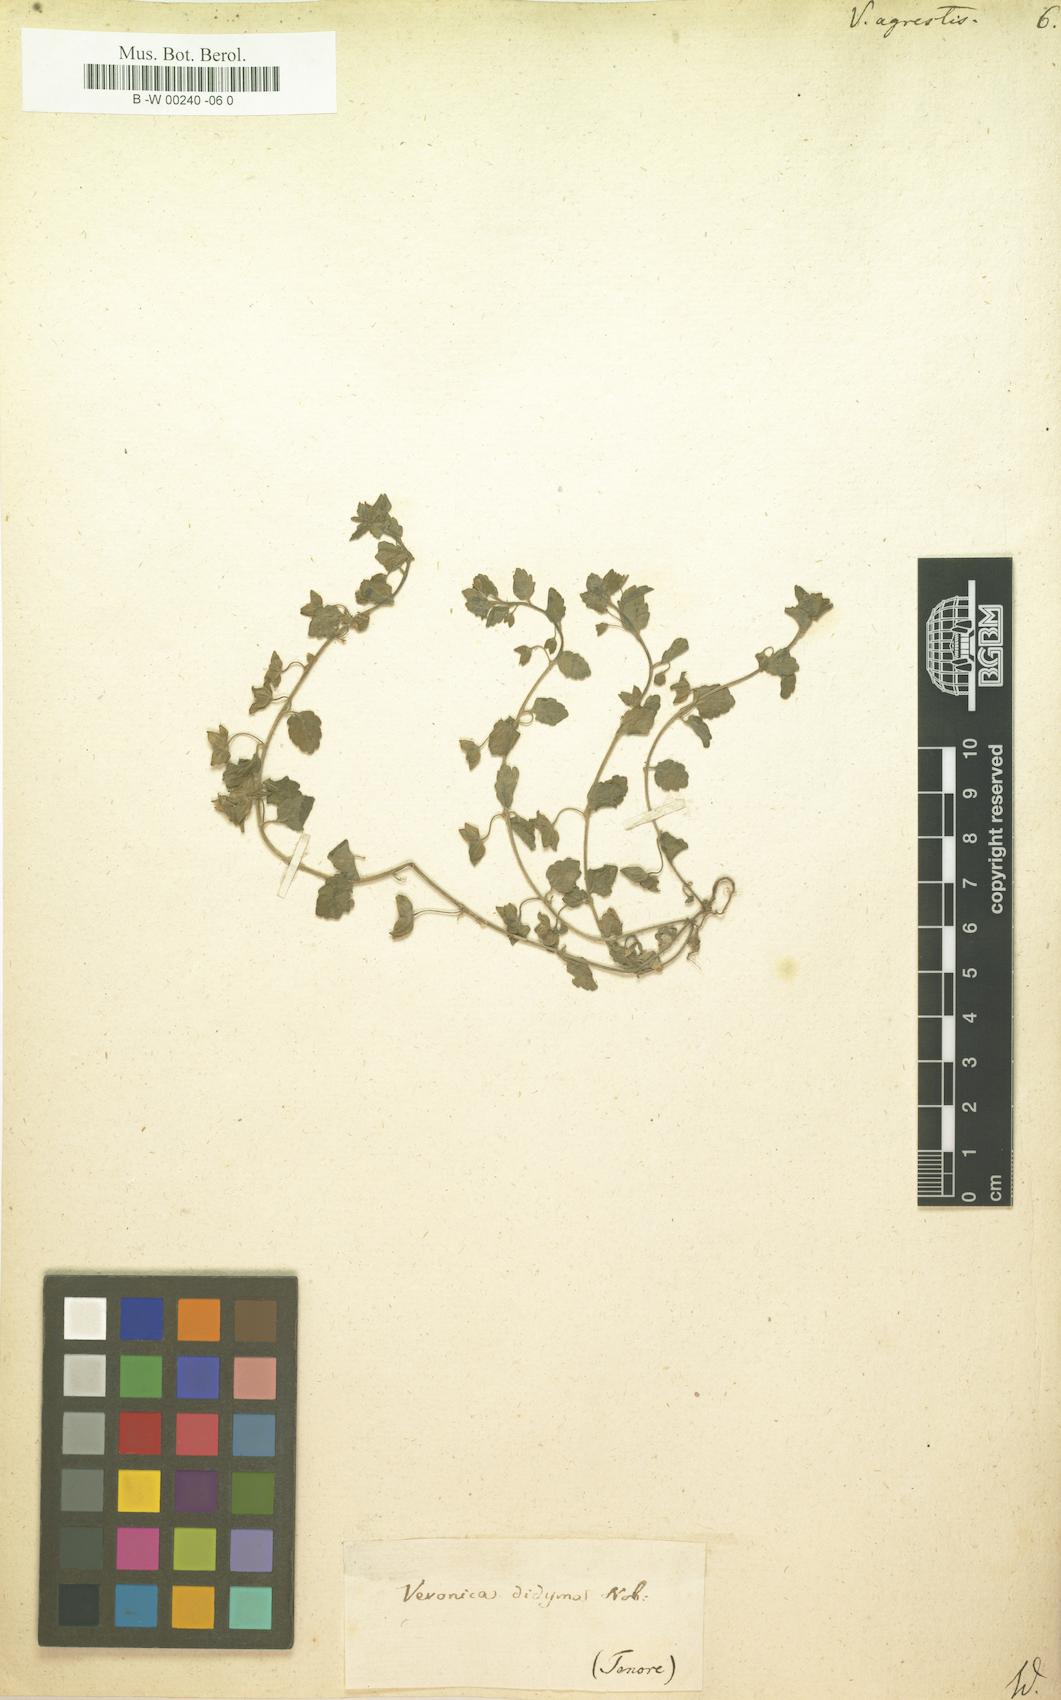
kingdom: Plantae
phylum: Tracheophyta
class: Magnoliopsida
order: Lamiales
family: Plantaginaceae
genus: Veronica
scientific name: Veronica agrestis
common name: Green field-speedwell
